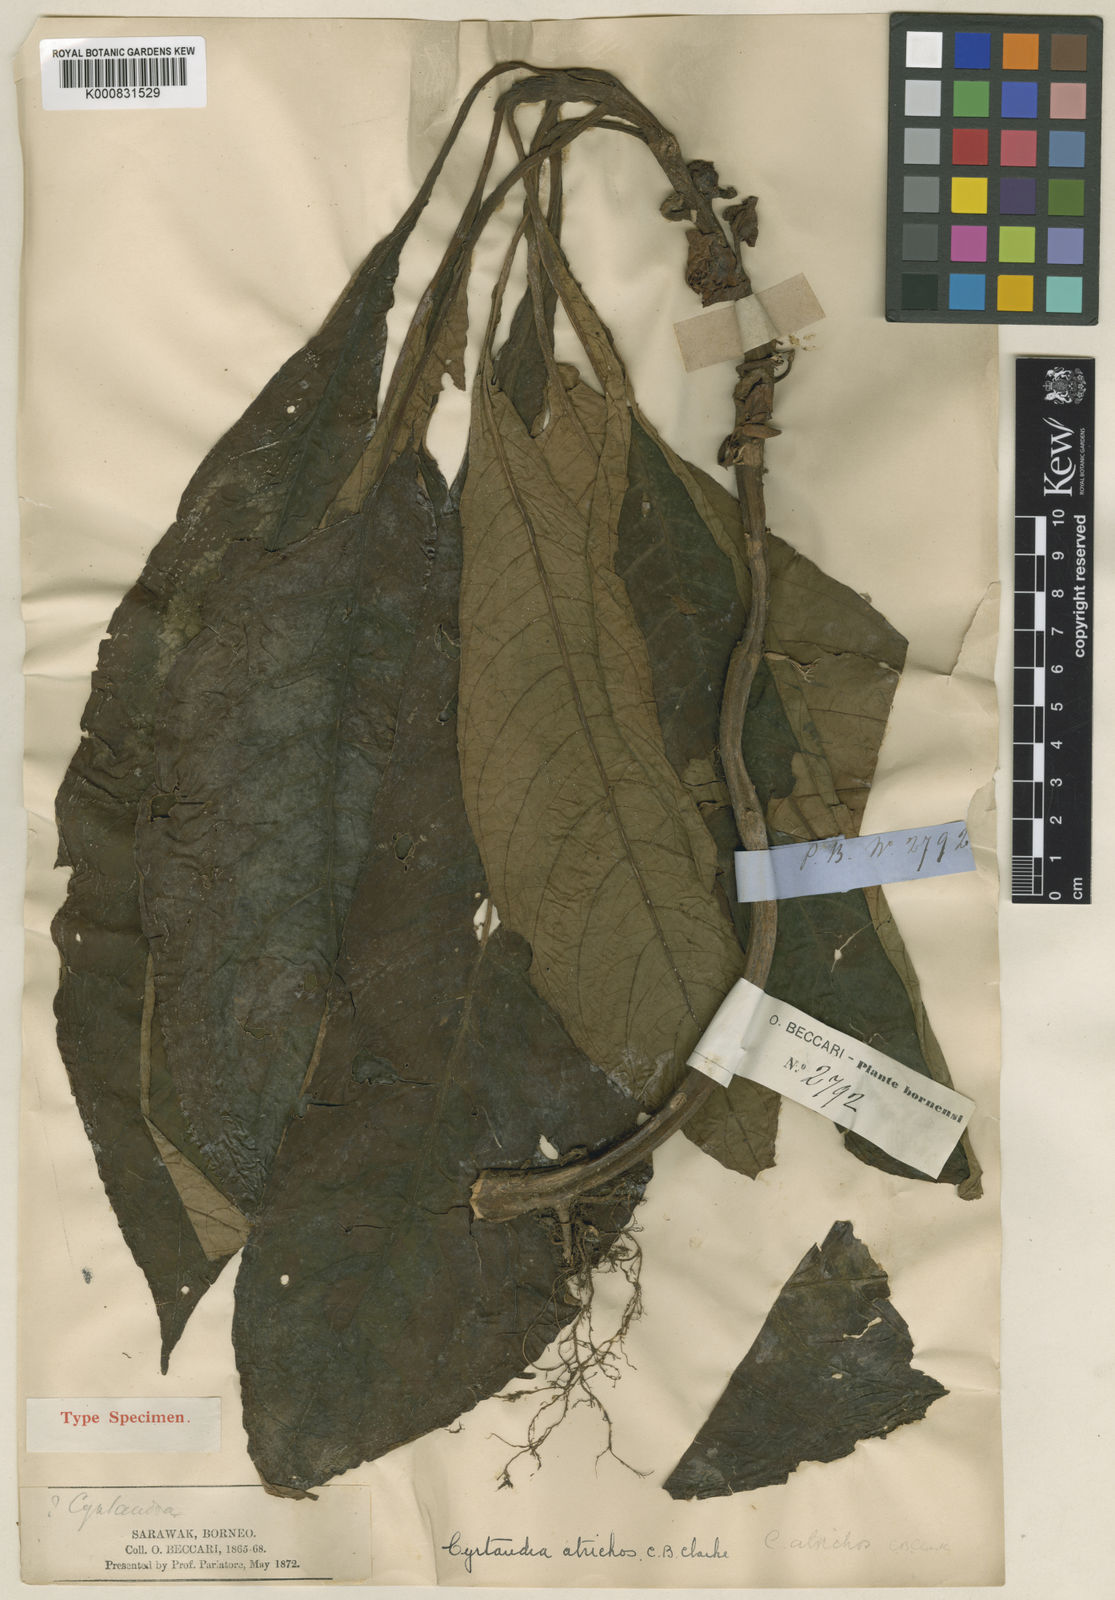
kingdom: Plantae
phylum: Tracheophyta
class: Magnoliopsida
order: Lamiales
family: Gesneriaceae
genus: Cyrtandra
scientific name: Cyrtandra atrichos
